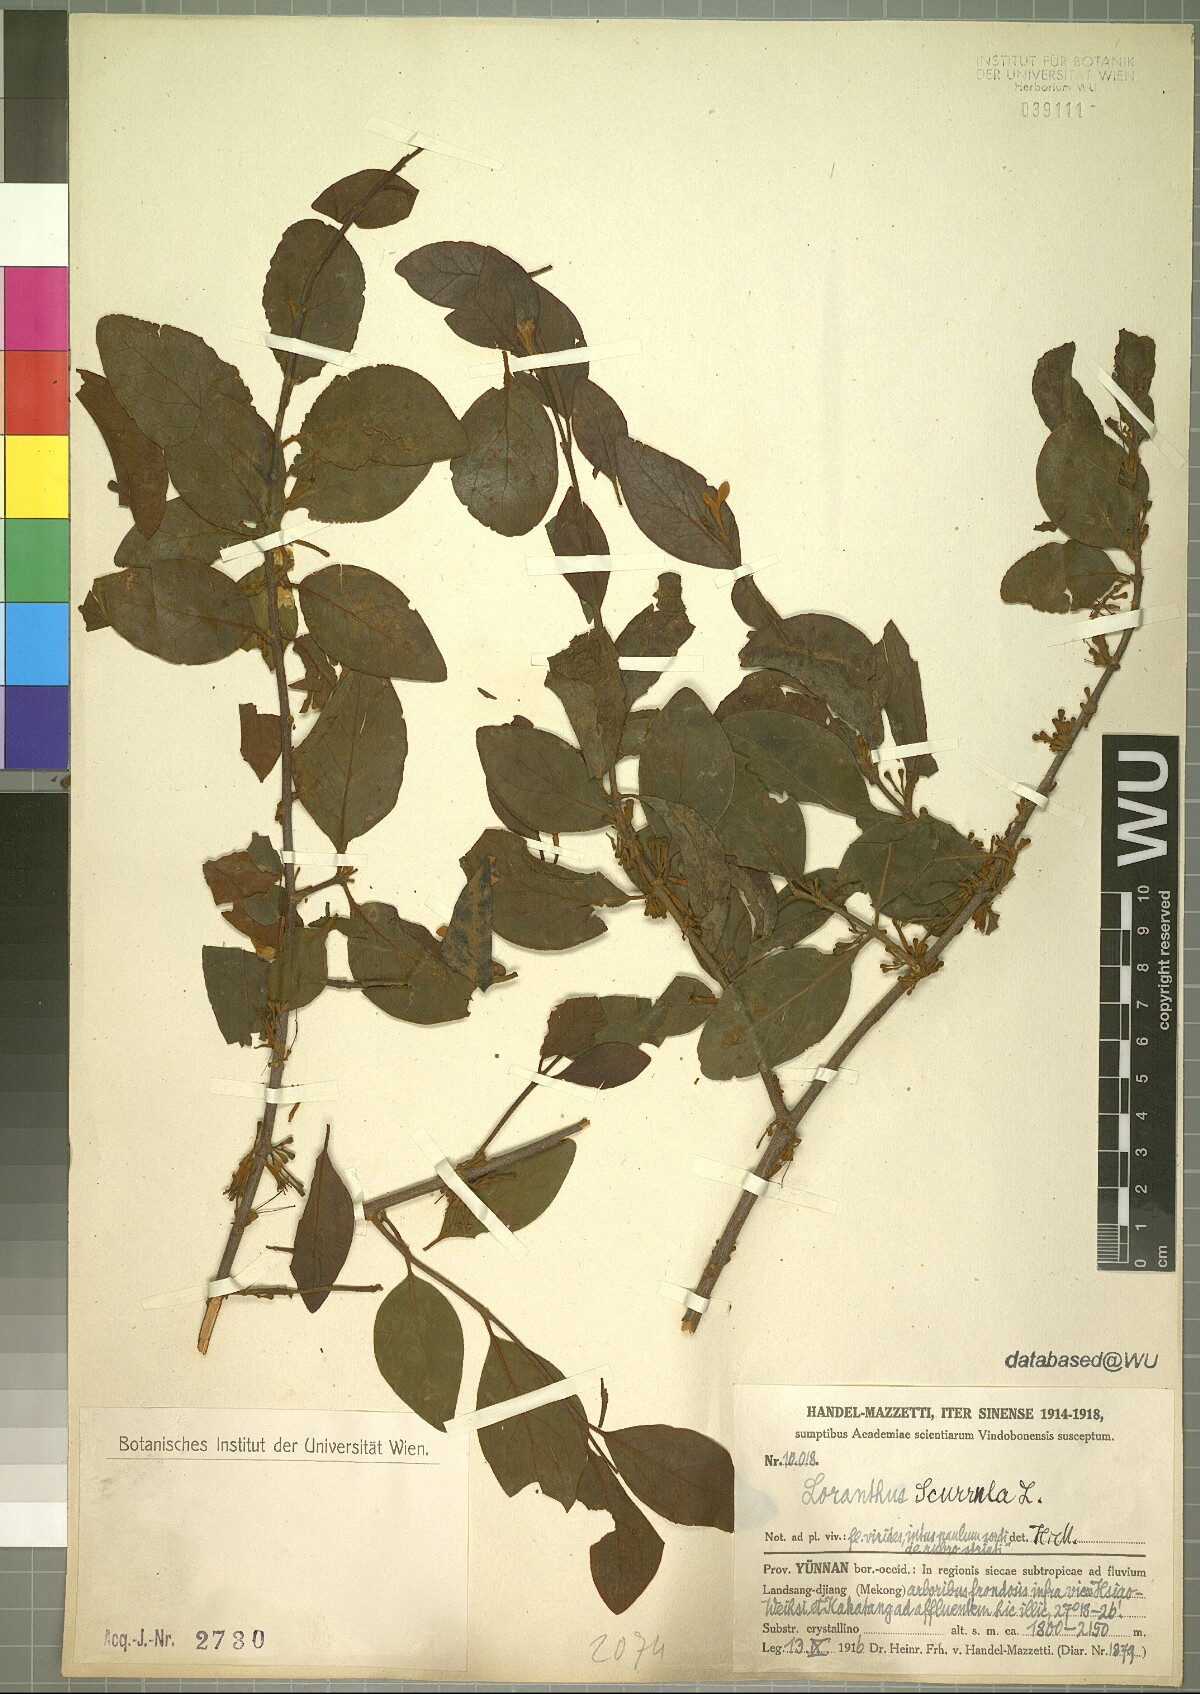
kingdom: Plantae
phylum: Tracheophyta
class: Magnoliopsida
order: Santalales
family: Loranthaceae
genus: Scurrula
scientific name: Scurrula parasitica
